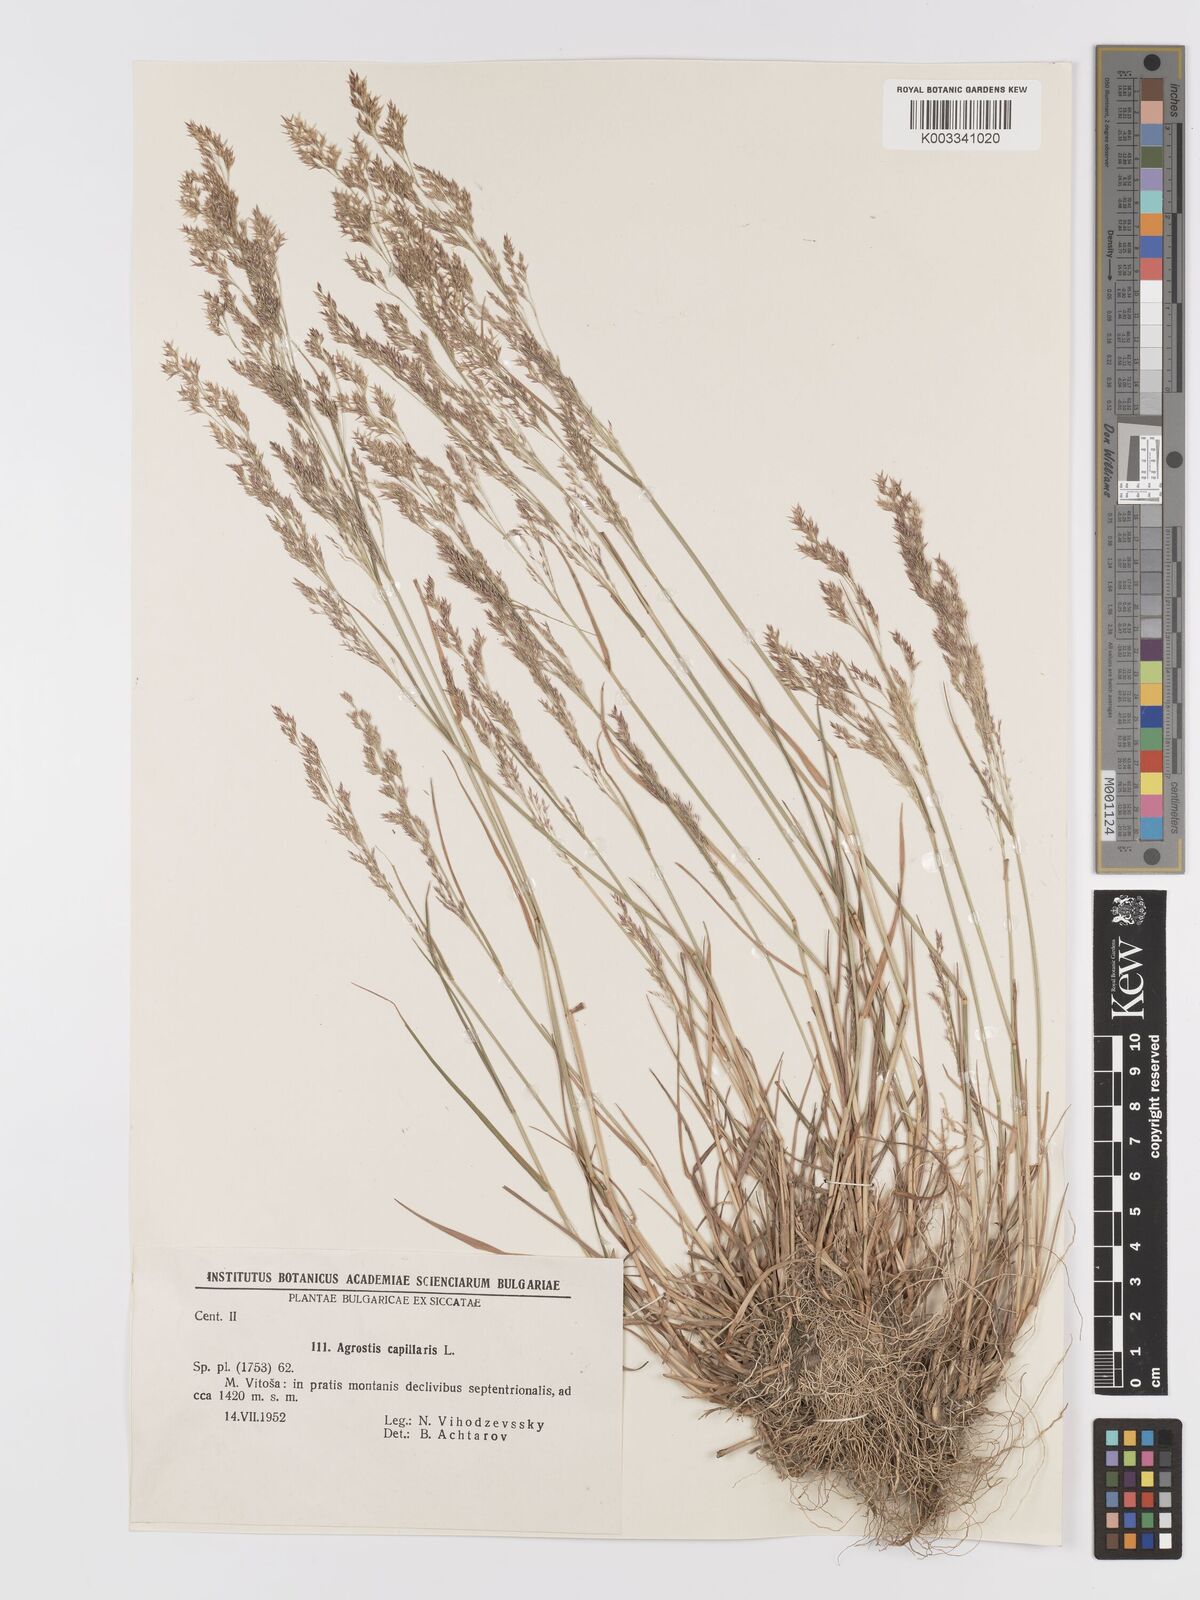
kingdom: Plantae
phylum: Tracheophyta
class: Liliopsida
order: Poales
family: Poaceae
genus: Agrostis
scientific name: Agrostis capillaris
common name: Colonial bentgrass
